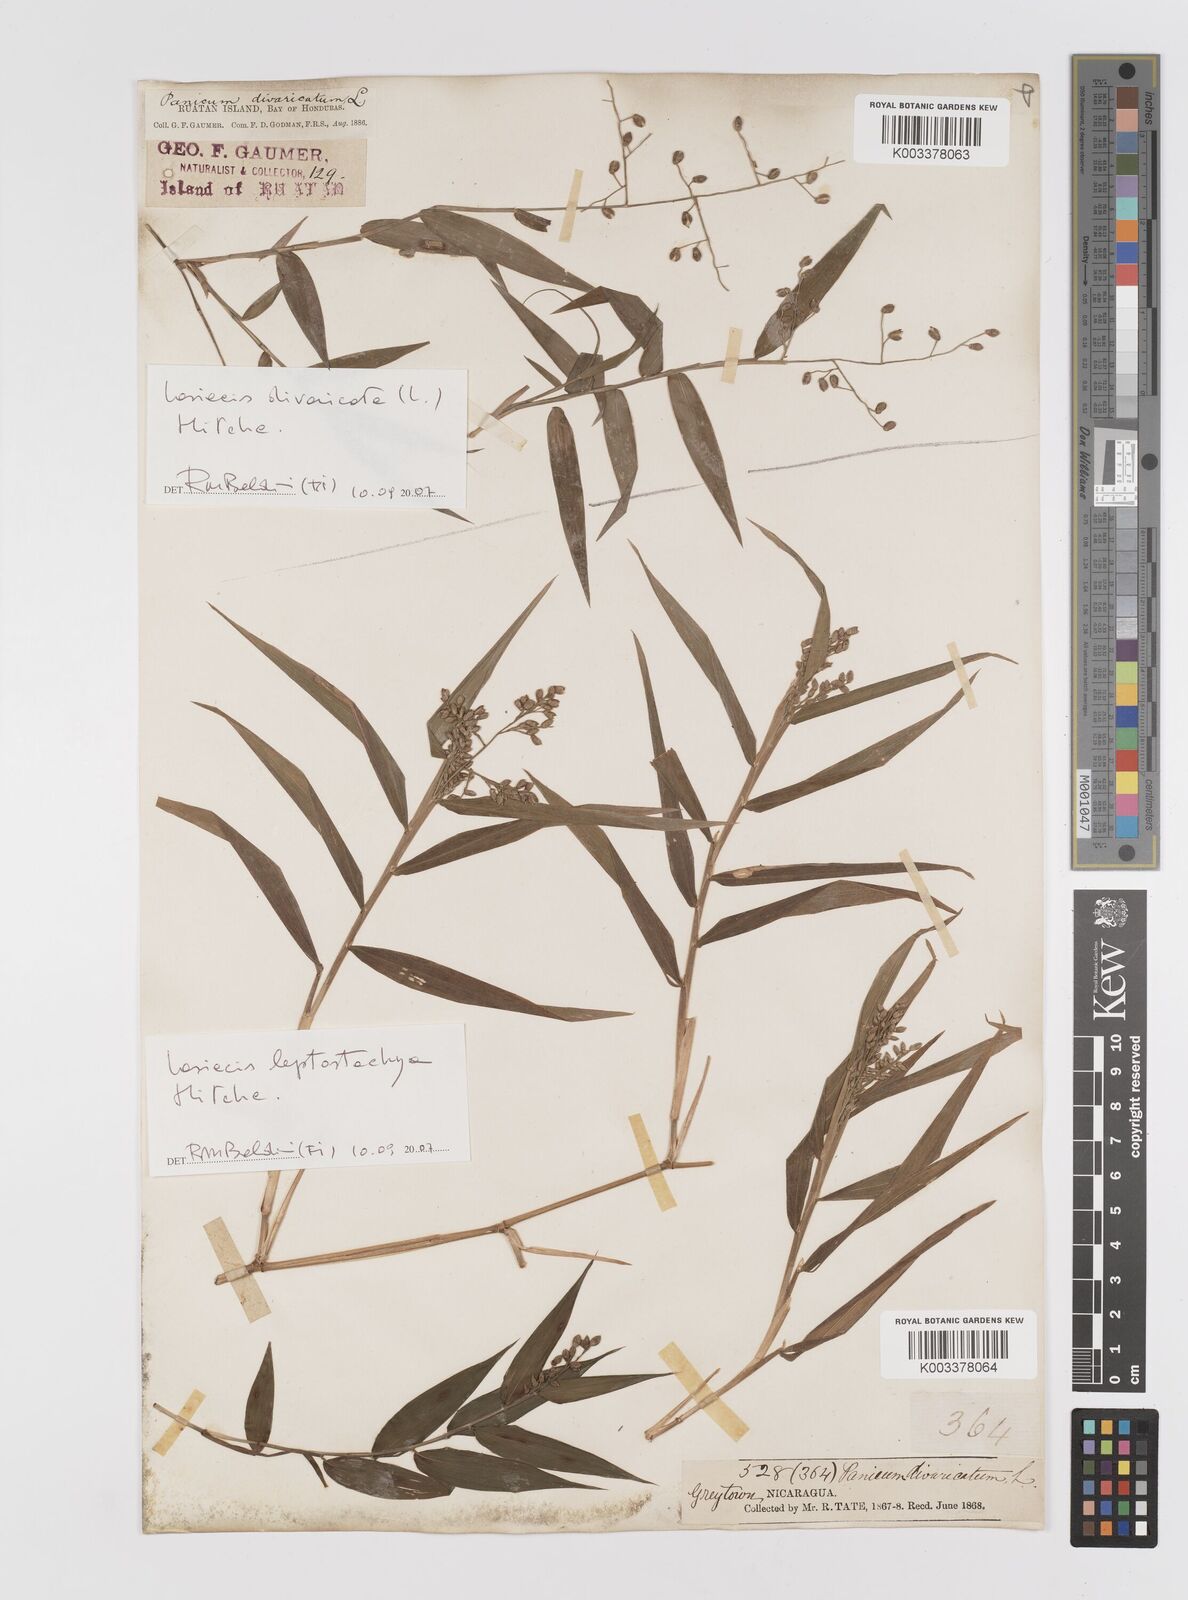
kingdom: Plantae
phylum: Tracheophyta
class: Liliopsida
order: Poales
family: Poaceae
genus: Lasiacis
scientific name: Lasiacis divaricata
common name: Smallcane
